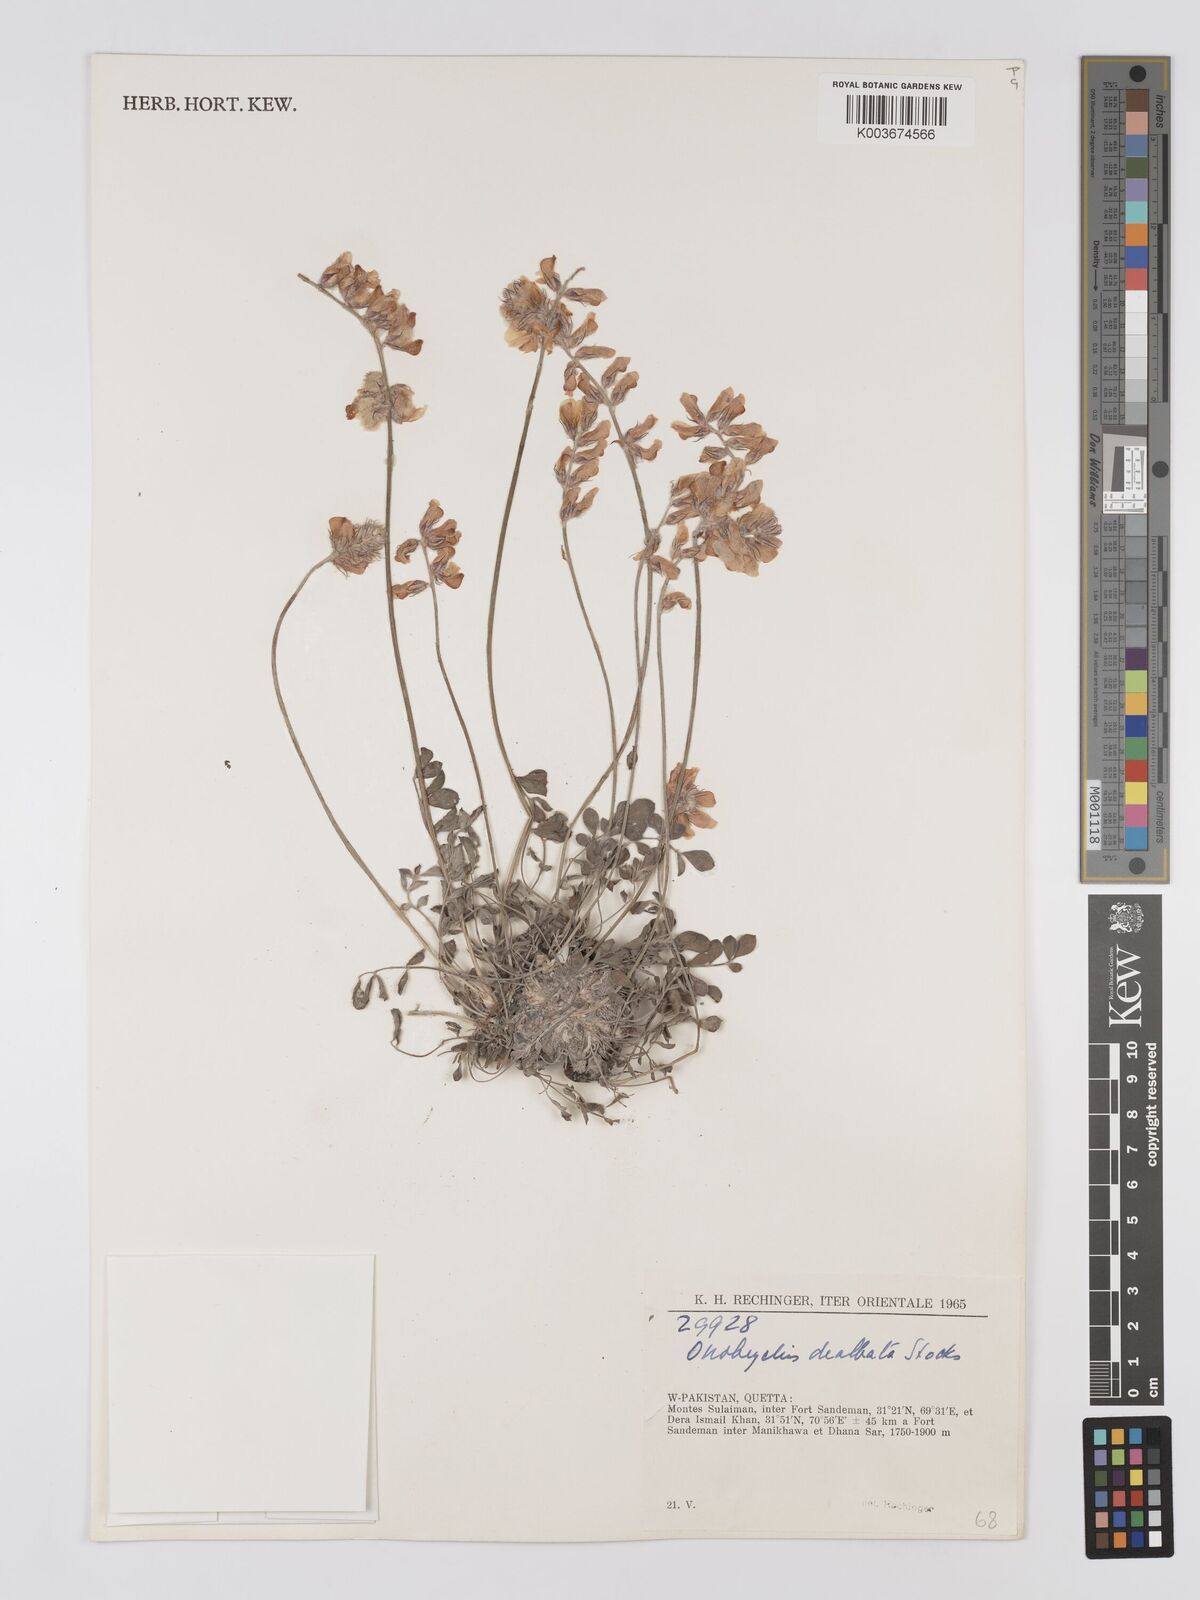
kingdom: Plantae
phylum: Tracheophyta
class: Magnoliopsida
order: Fabales
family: Fabaceae
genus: Onobrychis
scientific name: Onobrychis dealbata
